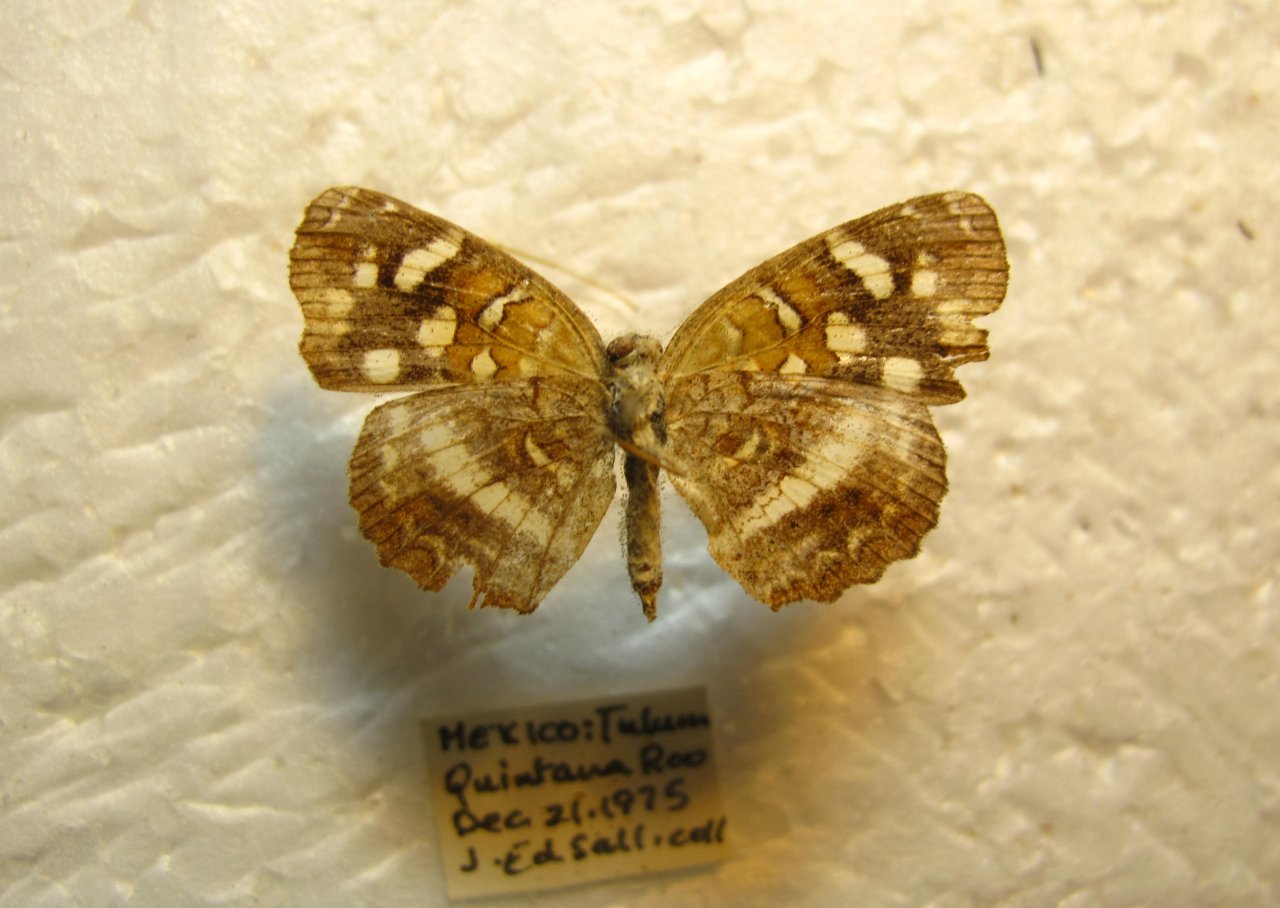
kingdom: Animalia
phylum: Arthropoda
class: Insecta
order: Lepidoptera
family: Nymphalidae
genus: Anthanassa
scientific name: Anthanassa tulcis
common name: Pale-banded Crescent
